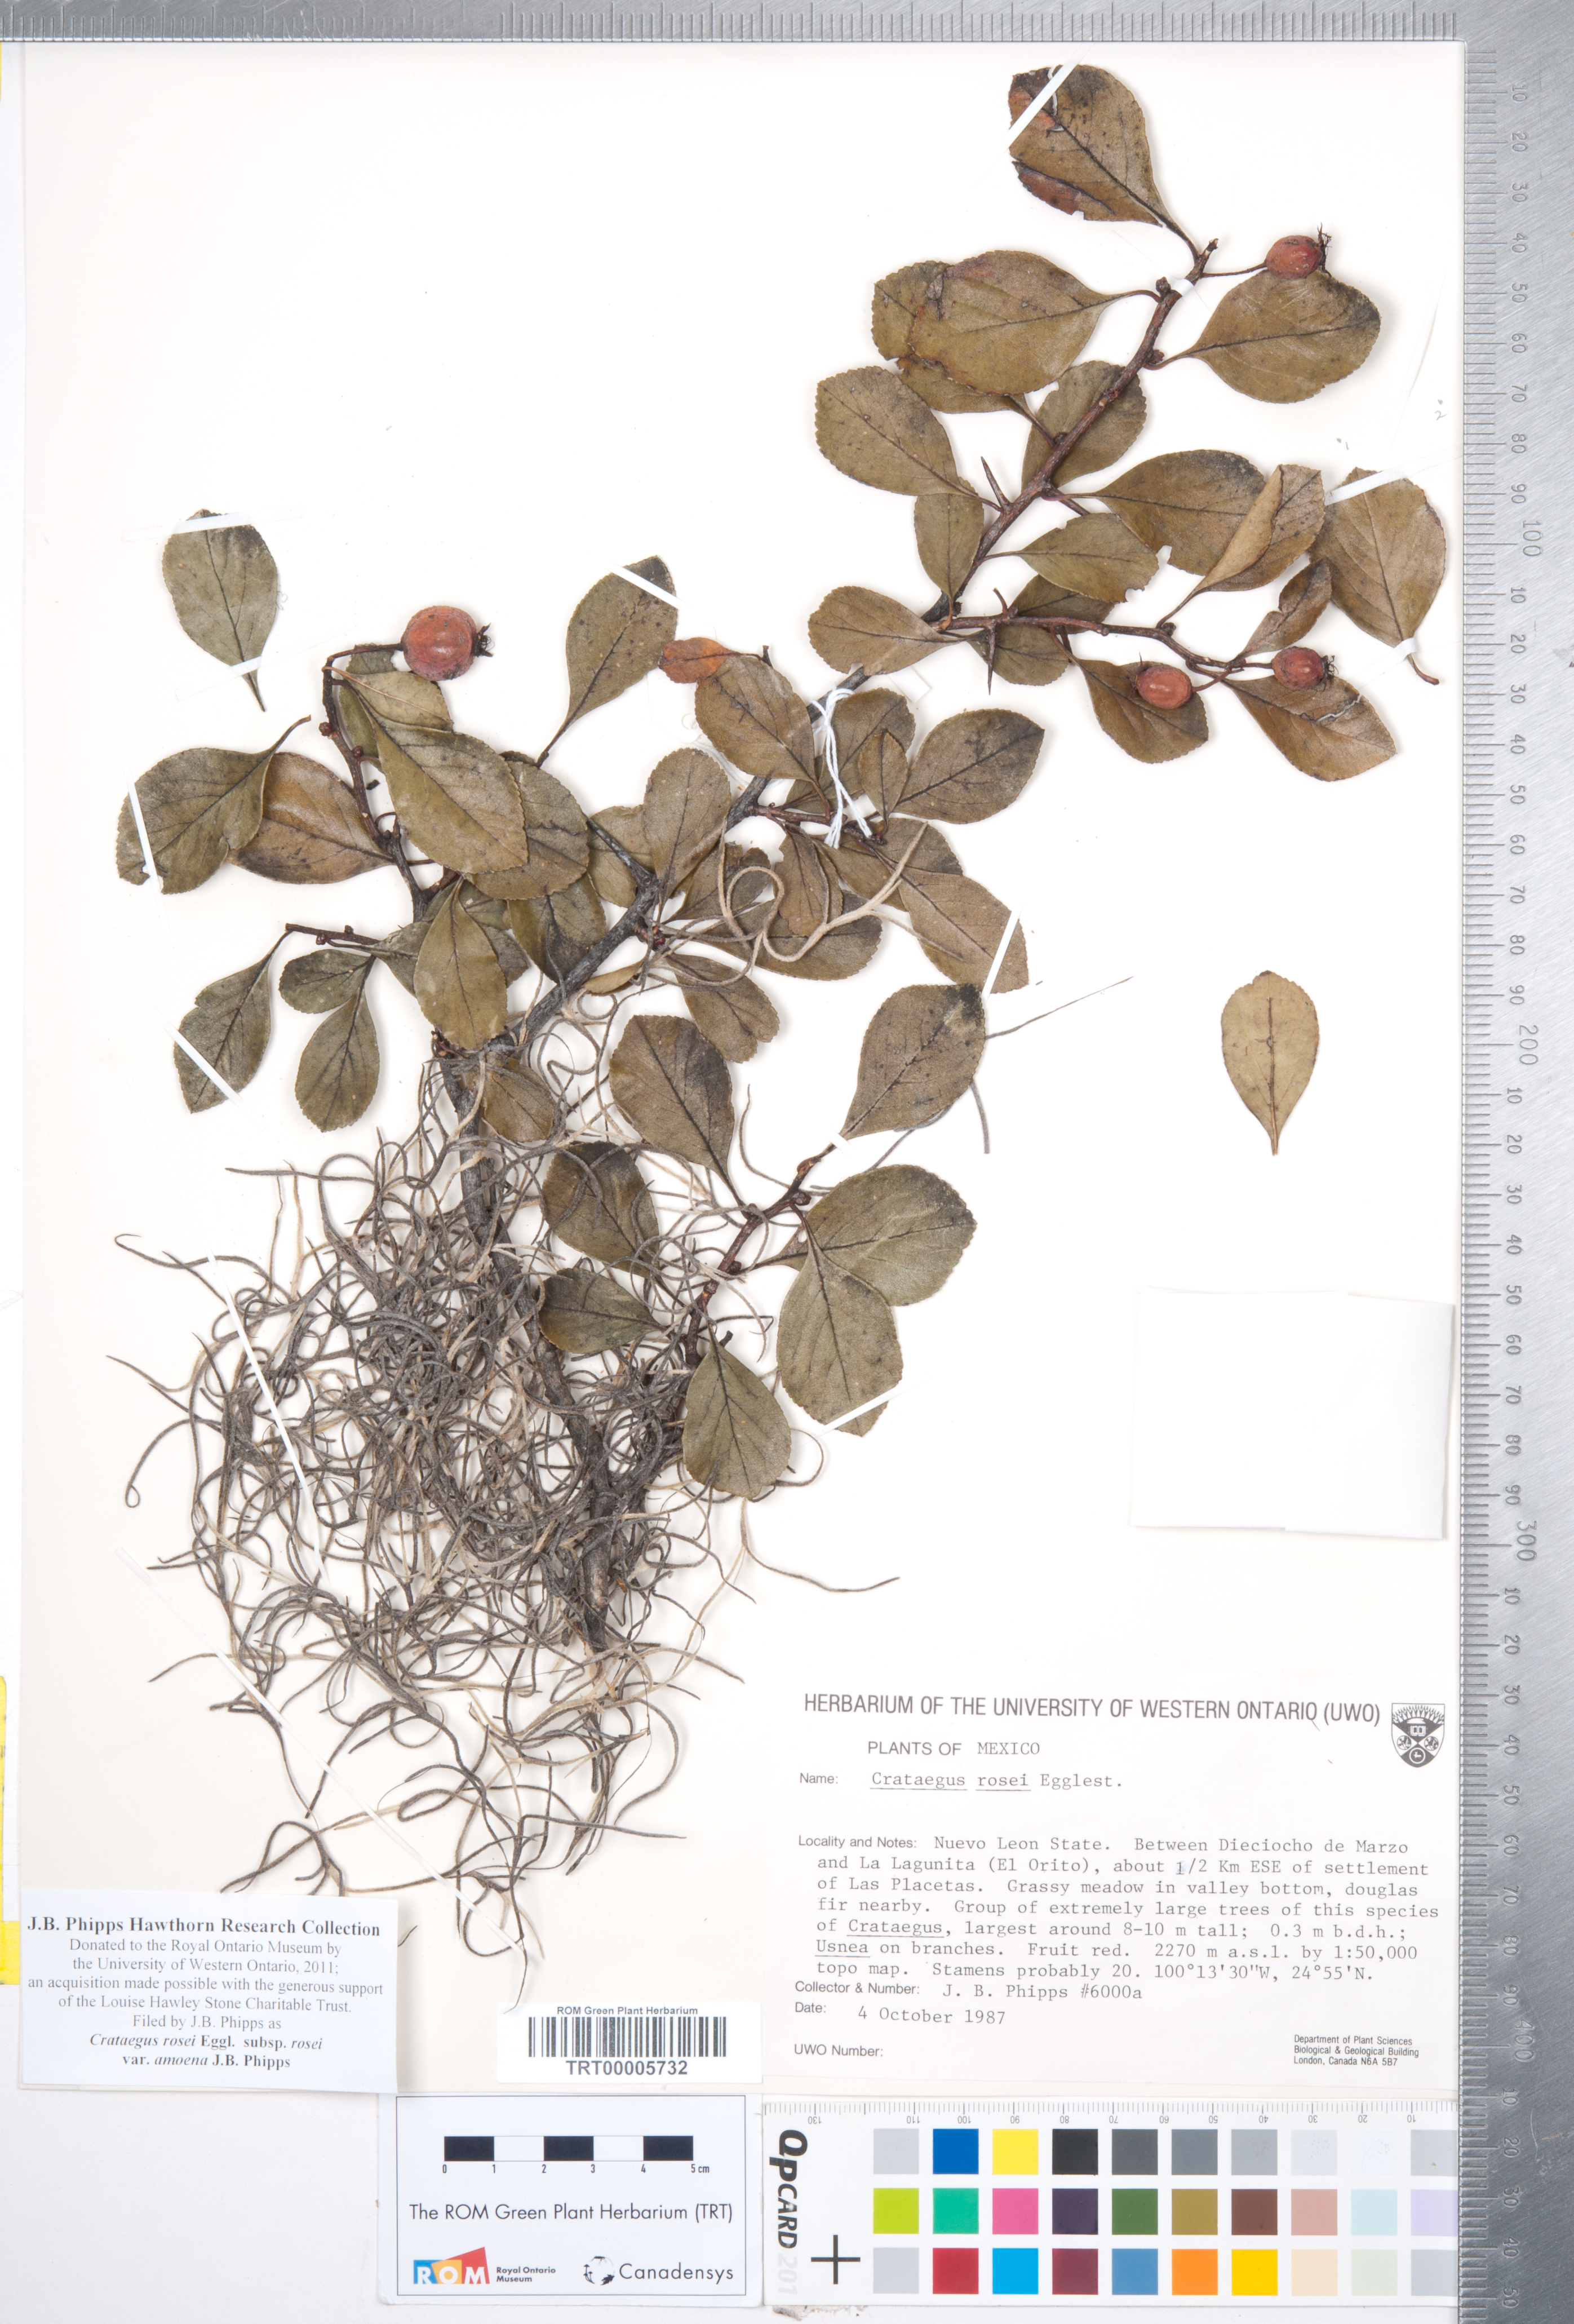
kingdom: Plantae
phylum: Tracheophyta
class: Magnoliopsida
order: Rosales
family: Rosaceae
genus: Crataegus
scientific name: Crataegus rosei
